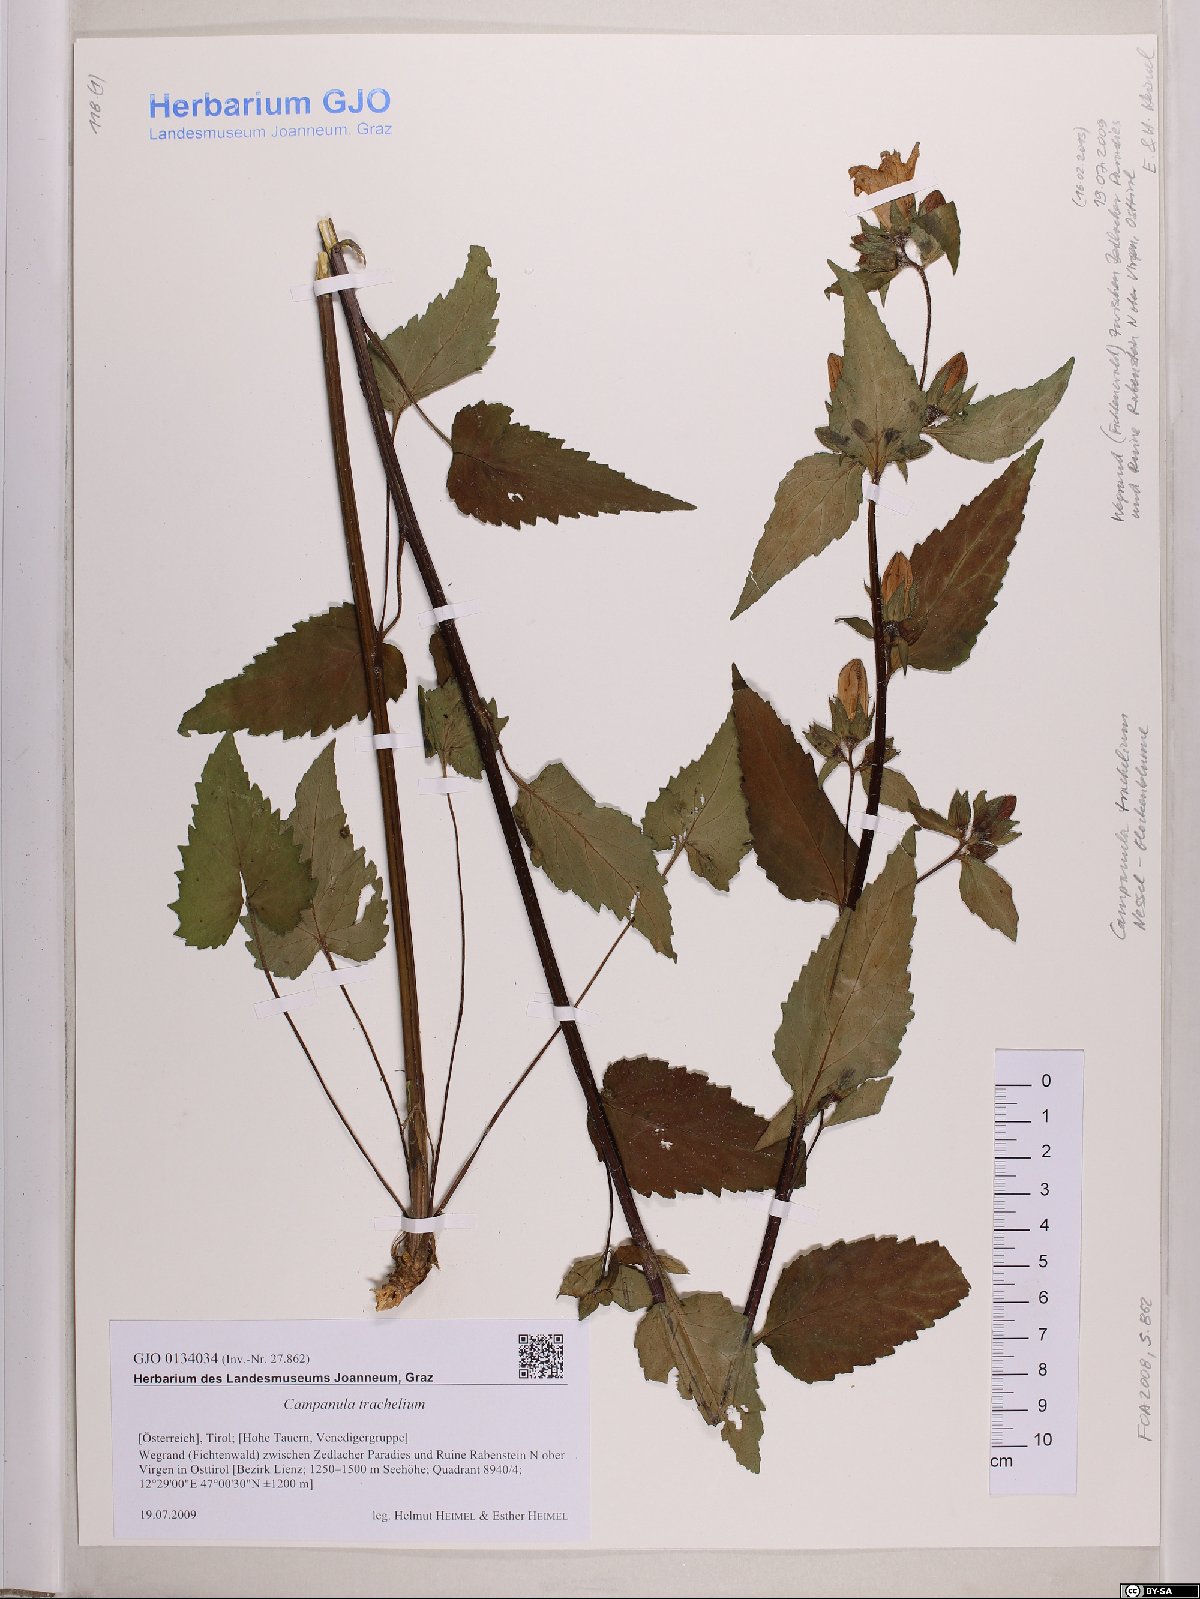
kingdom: Plantae
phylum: Tracheophyta
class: Magnoliopsida
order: Asterales
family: Campanulaceae
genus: Campanula
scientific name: Campanula trachelium
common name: Nettle-leaved bellflower
